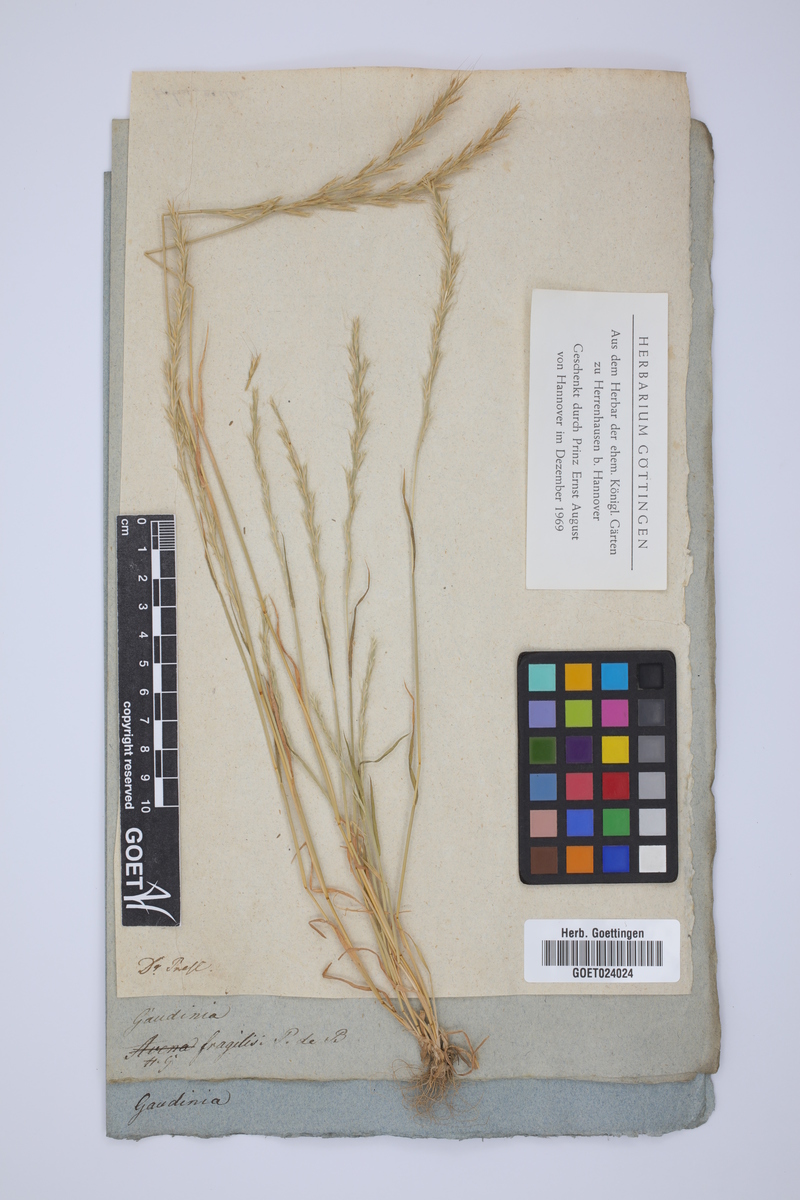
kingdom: Plantae
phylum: Tracheophyta
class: Liliopsida
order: Poales
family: Poaceae
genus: Gaudinia
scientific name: Gaudinia fragilis
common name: French oat-grass
